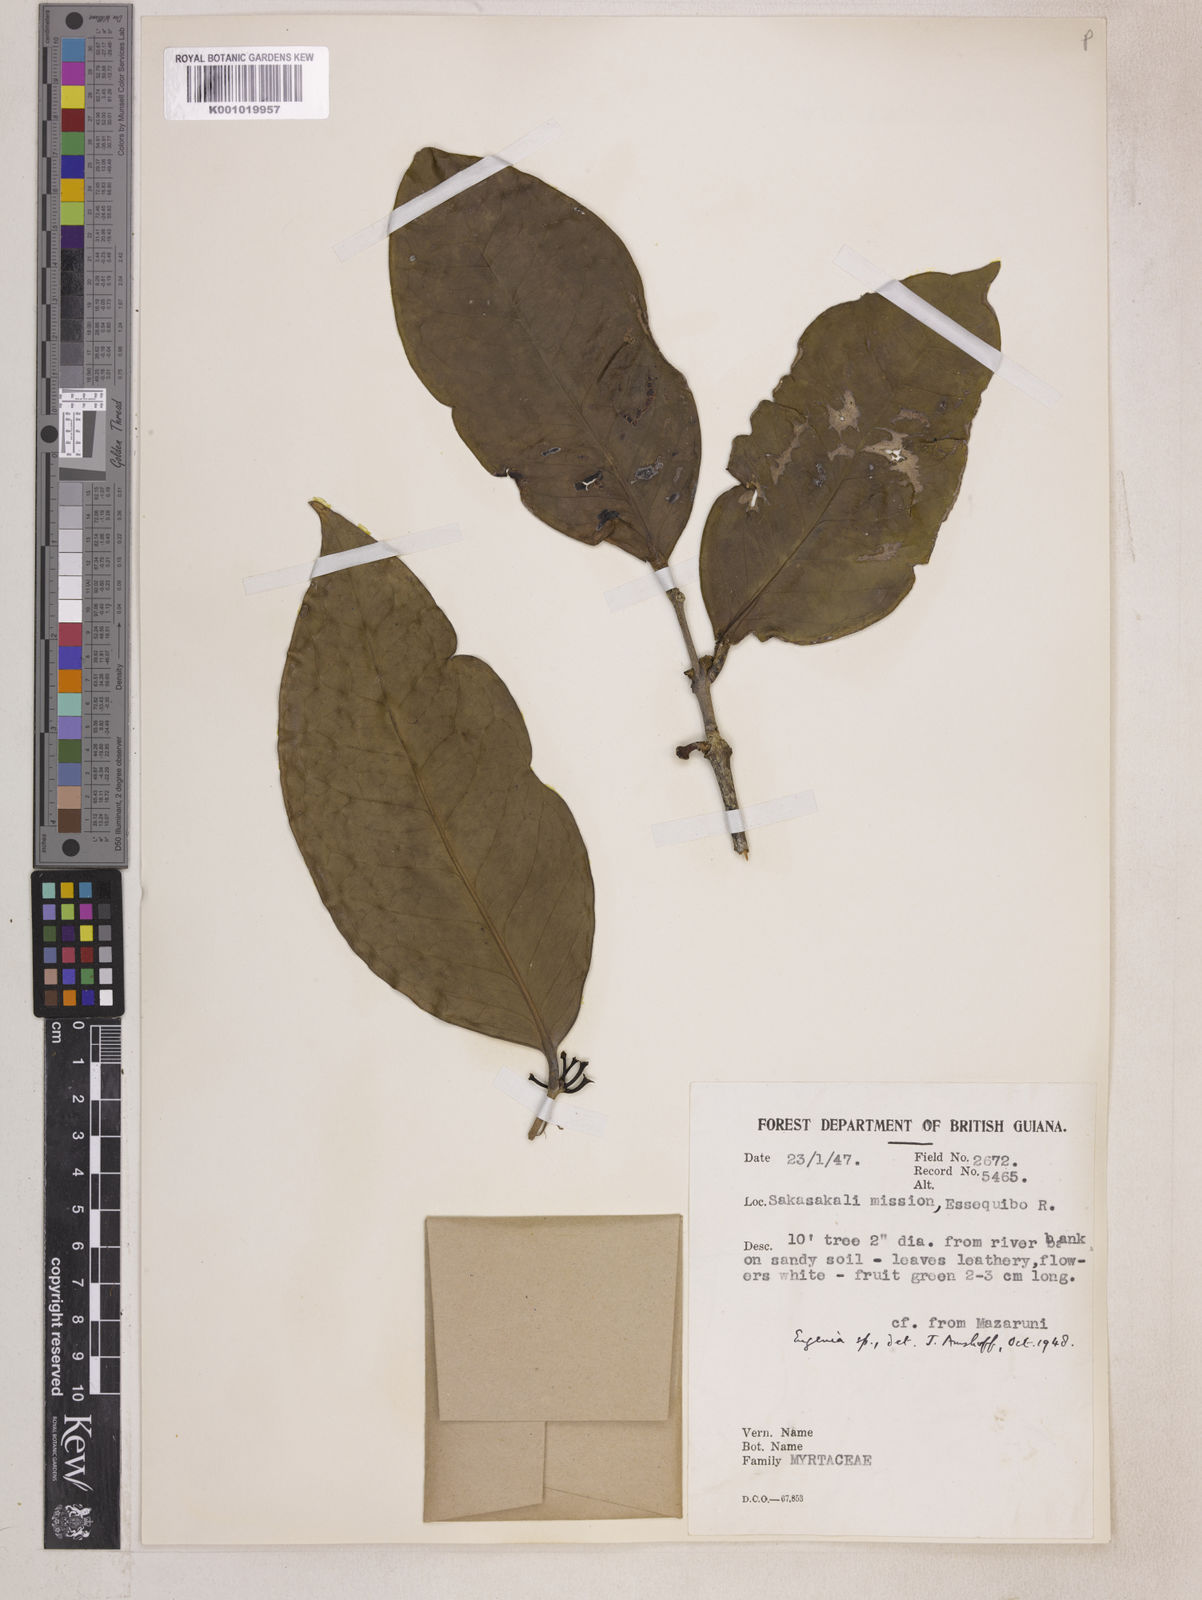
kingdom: Plantae
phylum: Tracheophyta
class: Magnoliopsida
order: Myrtales
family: Myrtaceae
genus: Eugenia
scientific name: Eugenia latifolia
